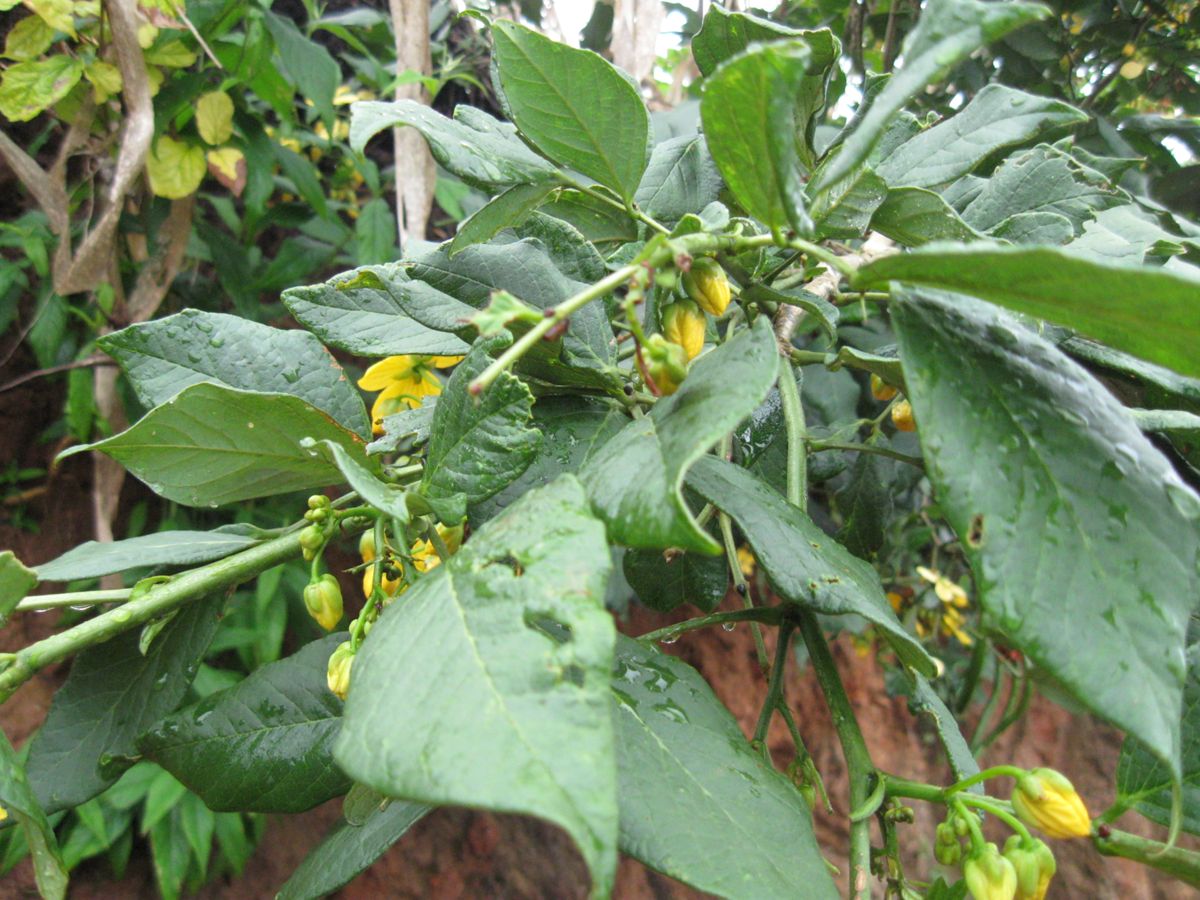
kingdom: Plantae
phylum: Tracheophyta
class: Magnoliopsida
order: Fabales
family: Fabaceae
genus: Senna
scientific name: Senna hayesiana
